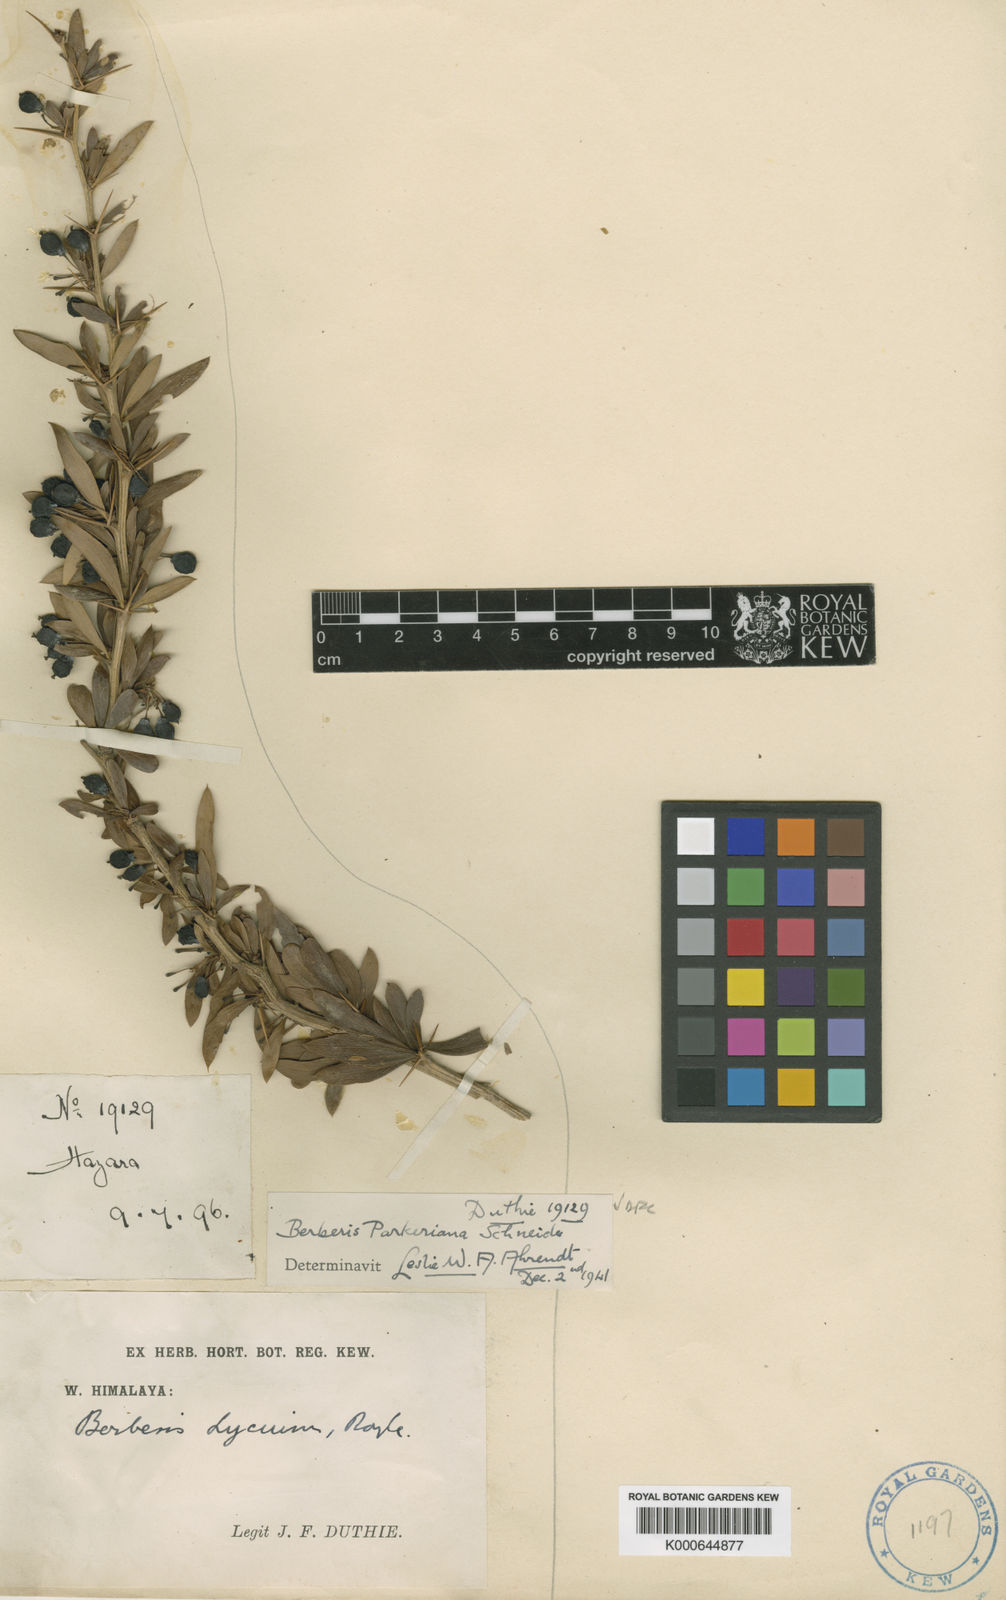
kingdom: Plantae
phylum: Tracheophyta
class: Magnoliopsida
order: Ranunculales
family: Berberidaceae
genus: Berberis
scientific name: Berberis parkeriana
